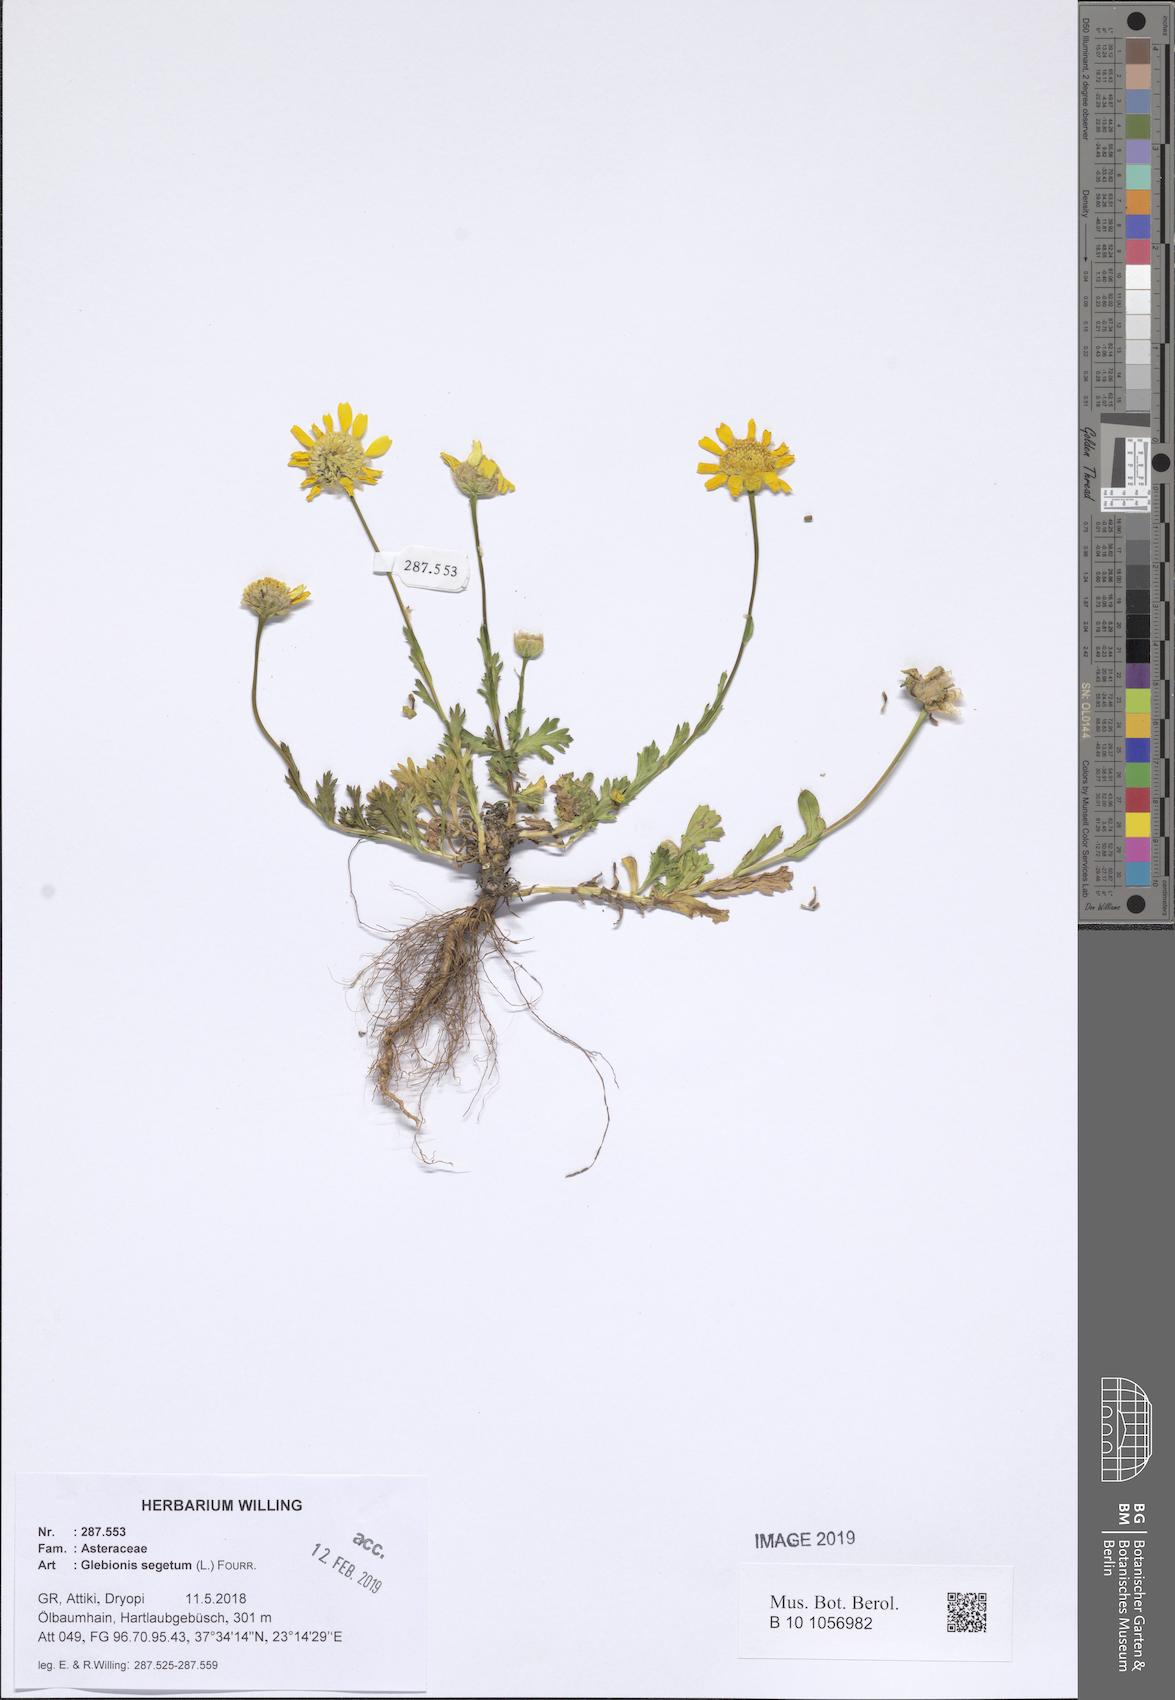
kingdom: Plantae
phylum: Tracheophyta
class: Magnoliopsida
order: Asterales
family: Asteraceae
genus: Glebionis
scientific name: Glebionis segetum
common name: Corndaisy
